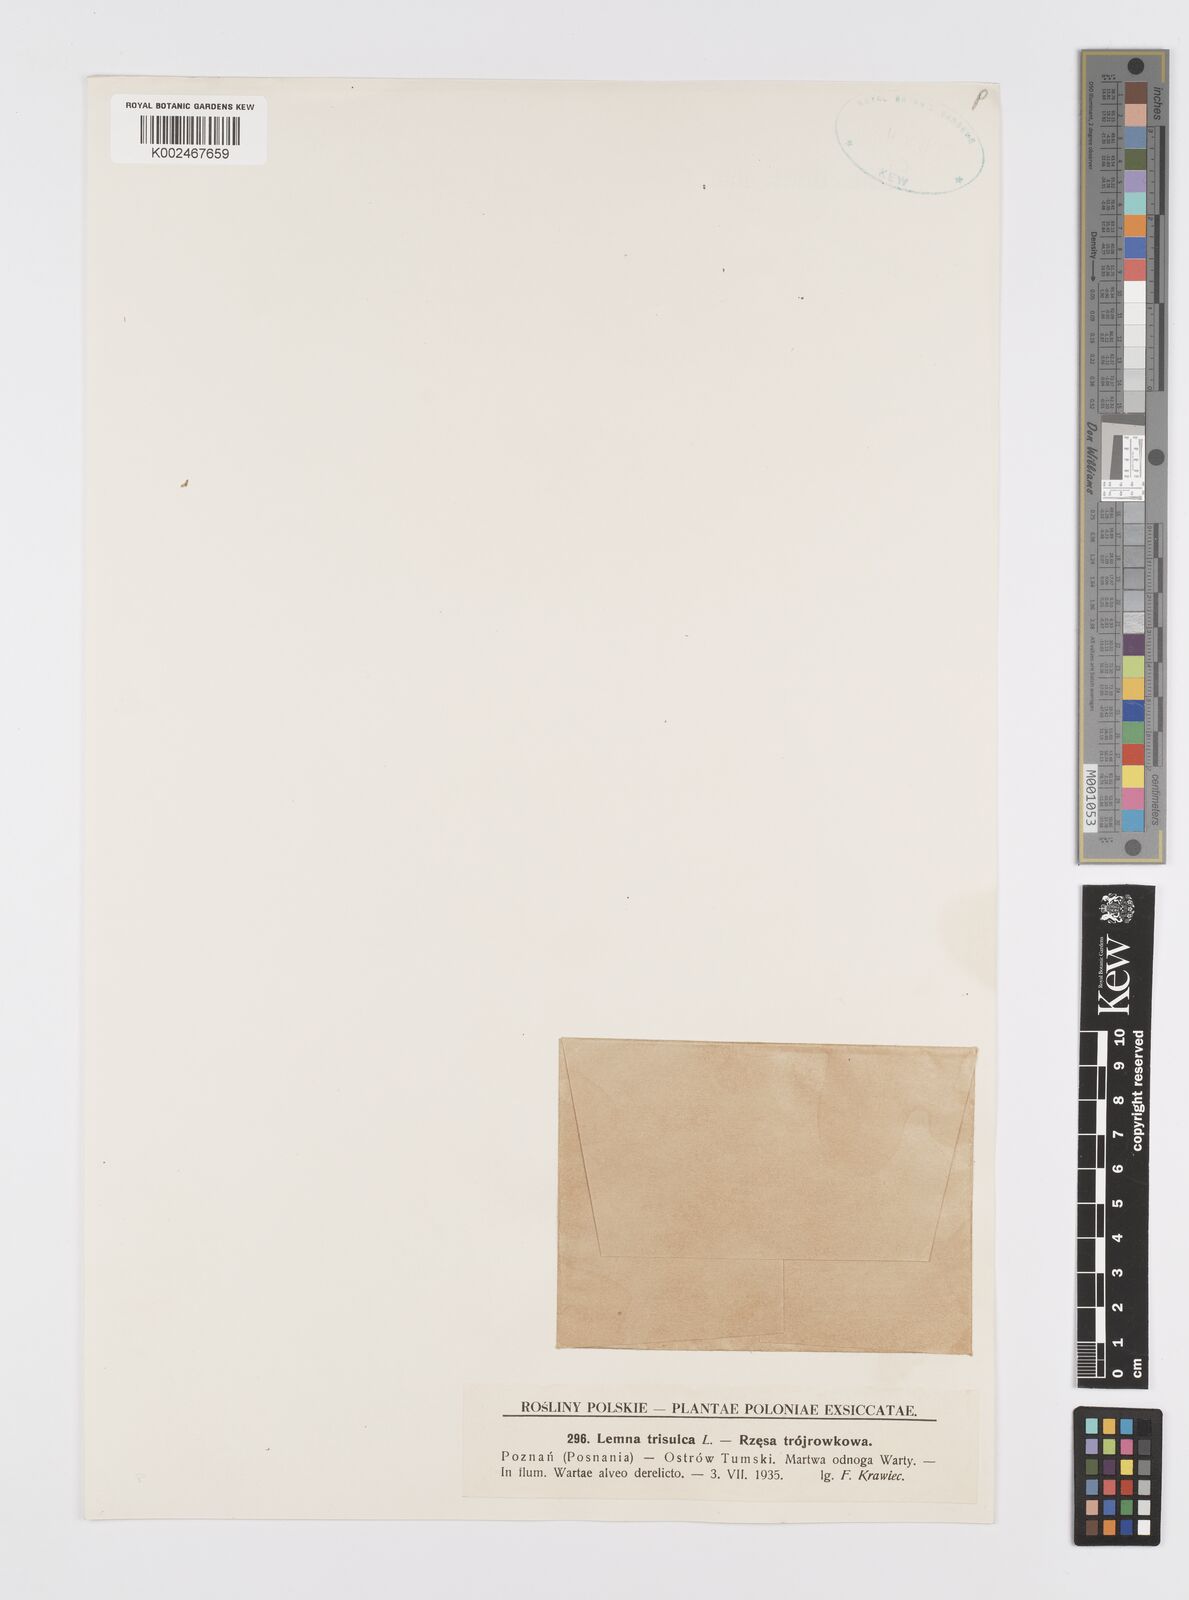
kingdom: Plantae
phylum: Tracheophyta
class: Liliopsida
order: Alismatales
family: Araceae
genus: Lemna
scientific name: Lemna trisulca
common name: Ivy-leaved duckweed
